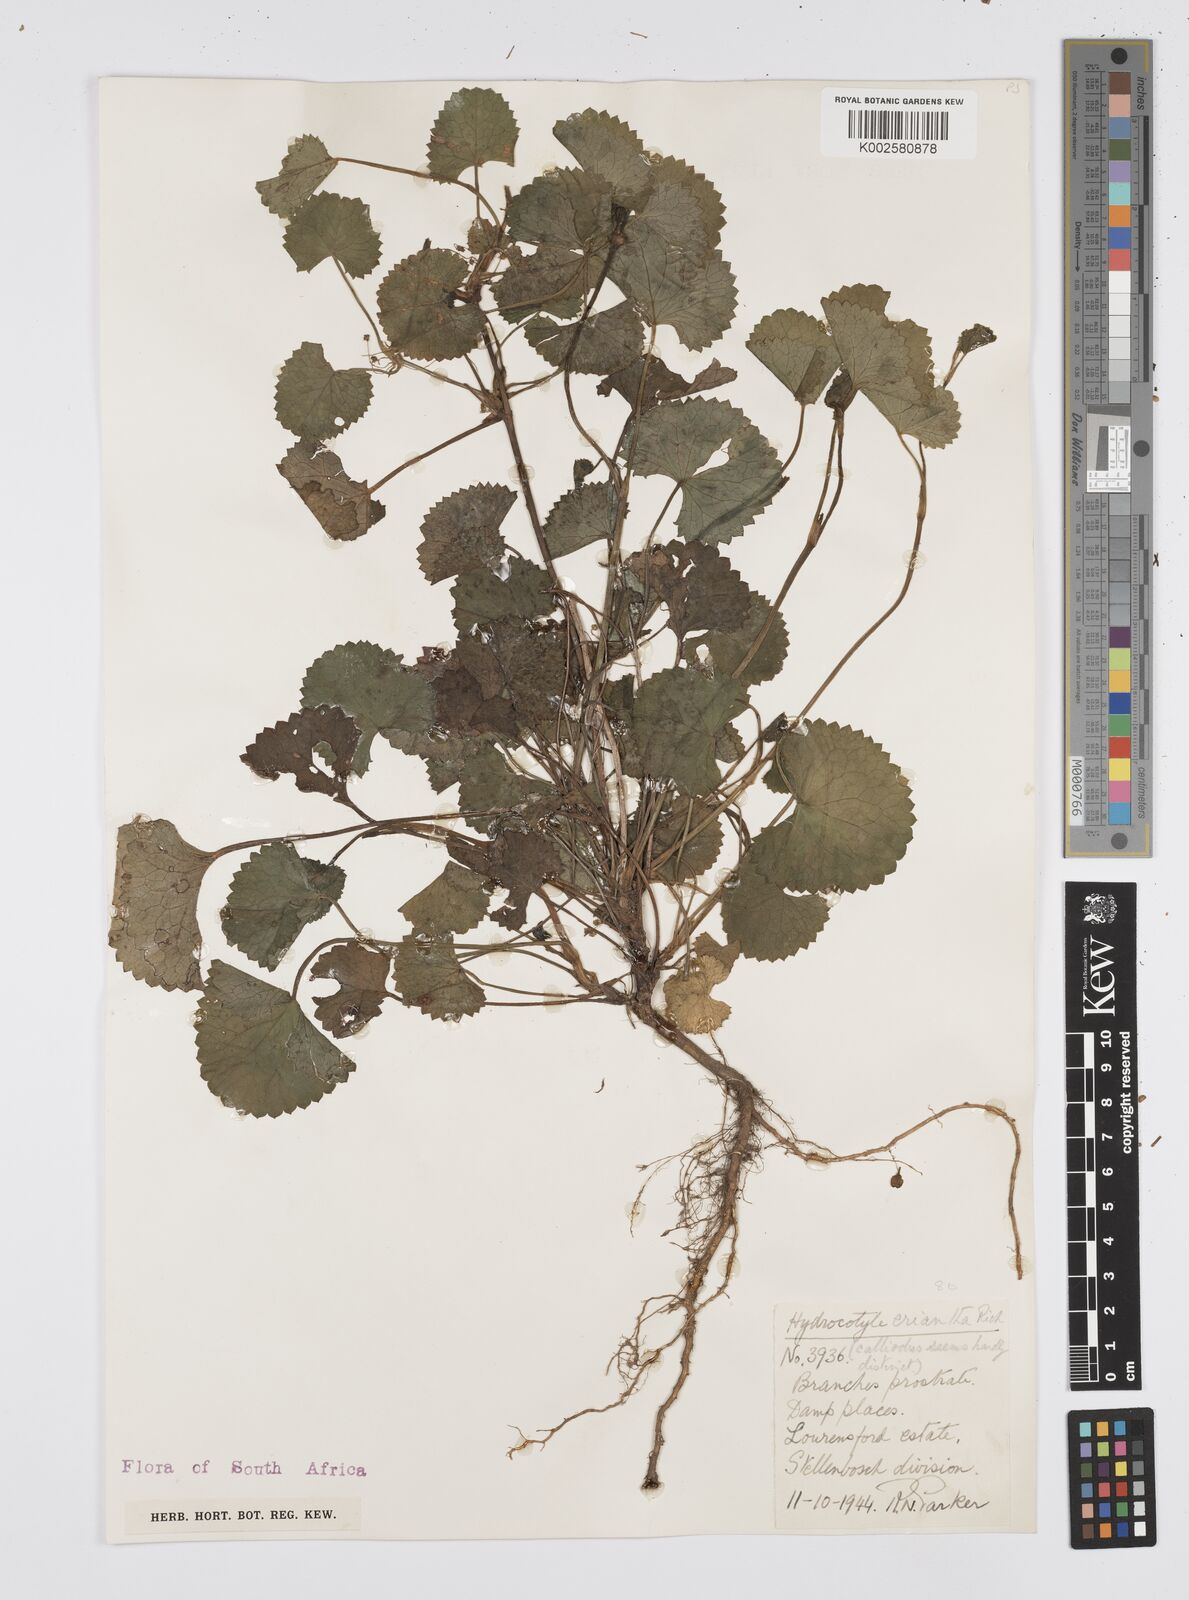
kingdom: Plantae
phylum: Tracheophyta
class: Magnoliopsida
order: Apiales
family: Apiaceae
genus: Centella
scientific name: Centella eriantha
